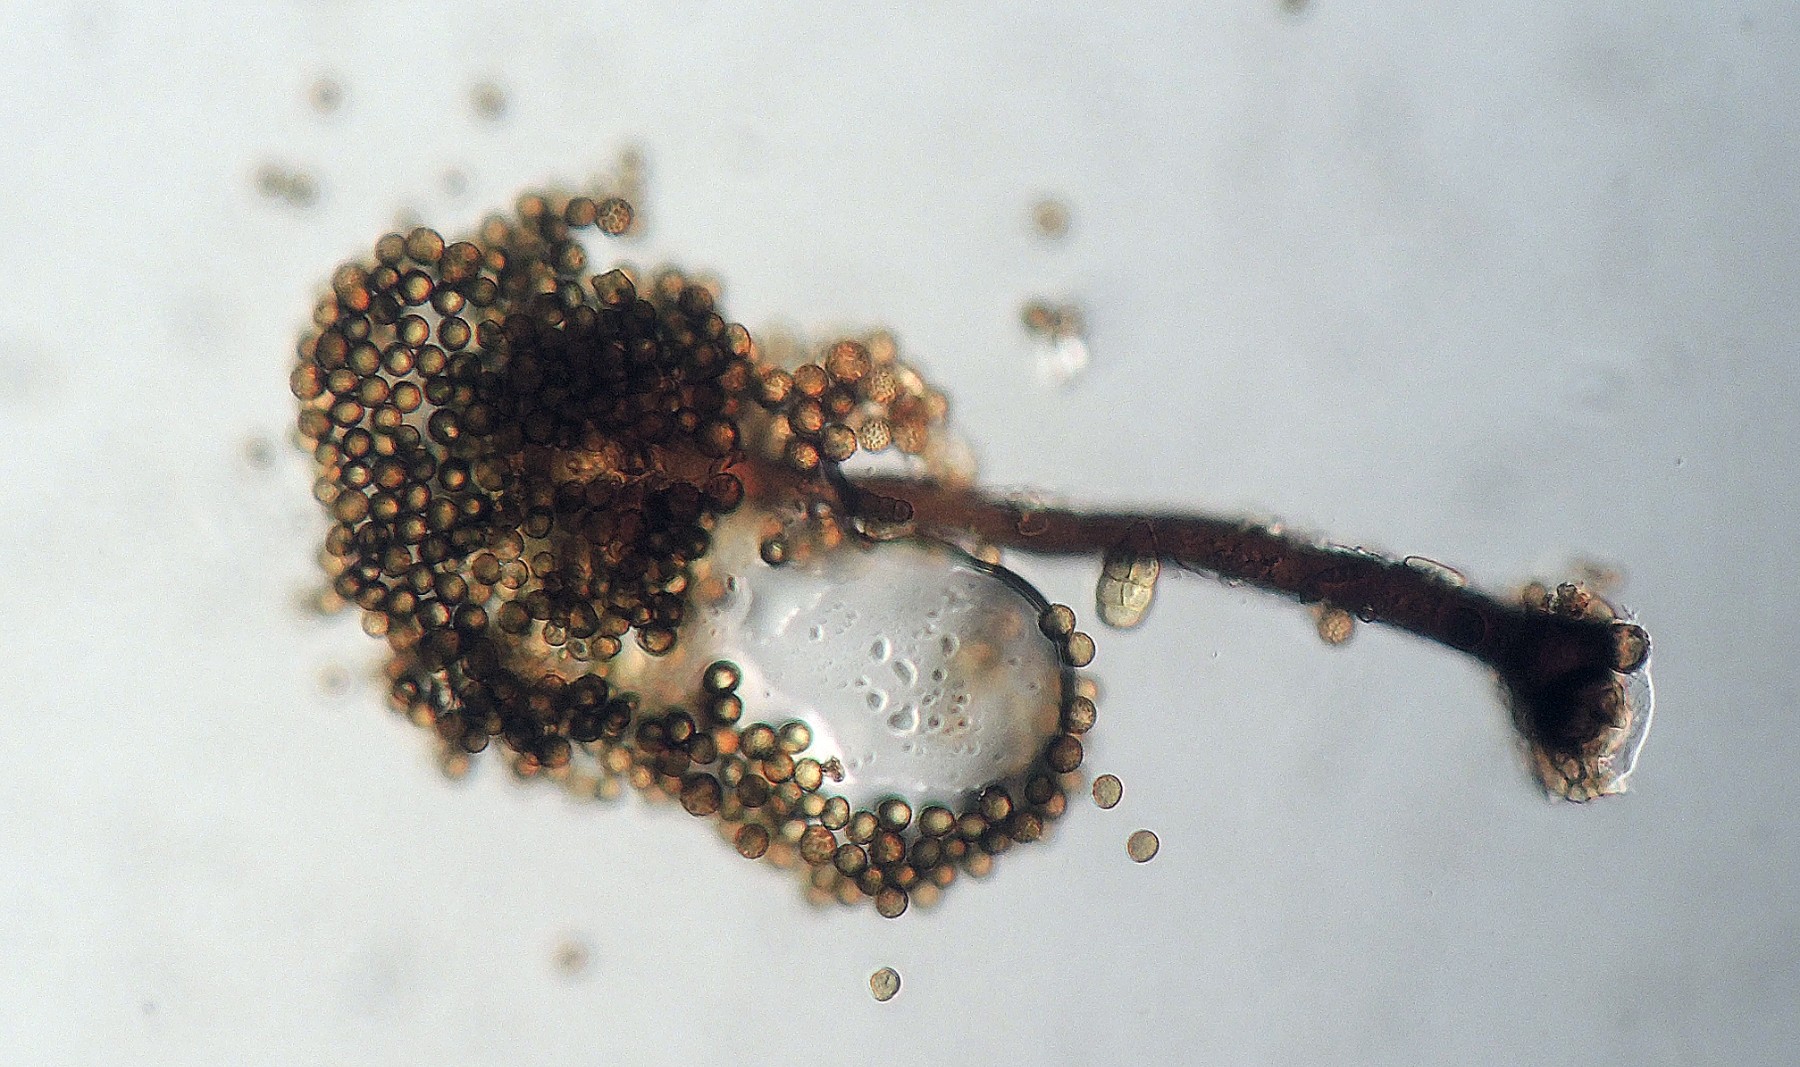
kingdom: Fungi
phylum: Ascomycota
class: Dothideomycetes
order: Pleosporales
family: Periconiaceae
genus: Periconia
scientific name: Periconia
